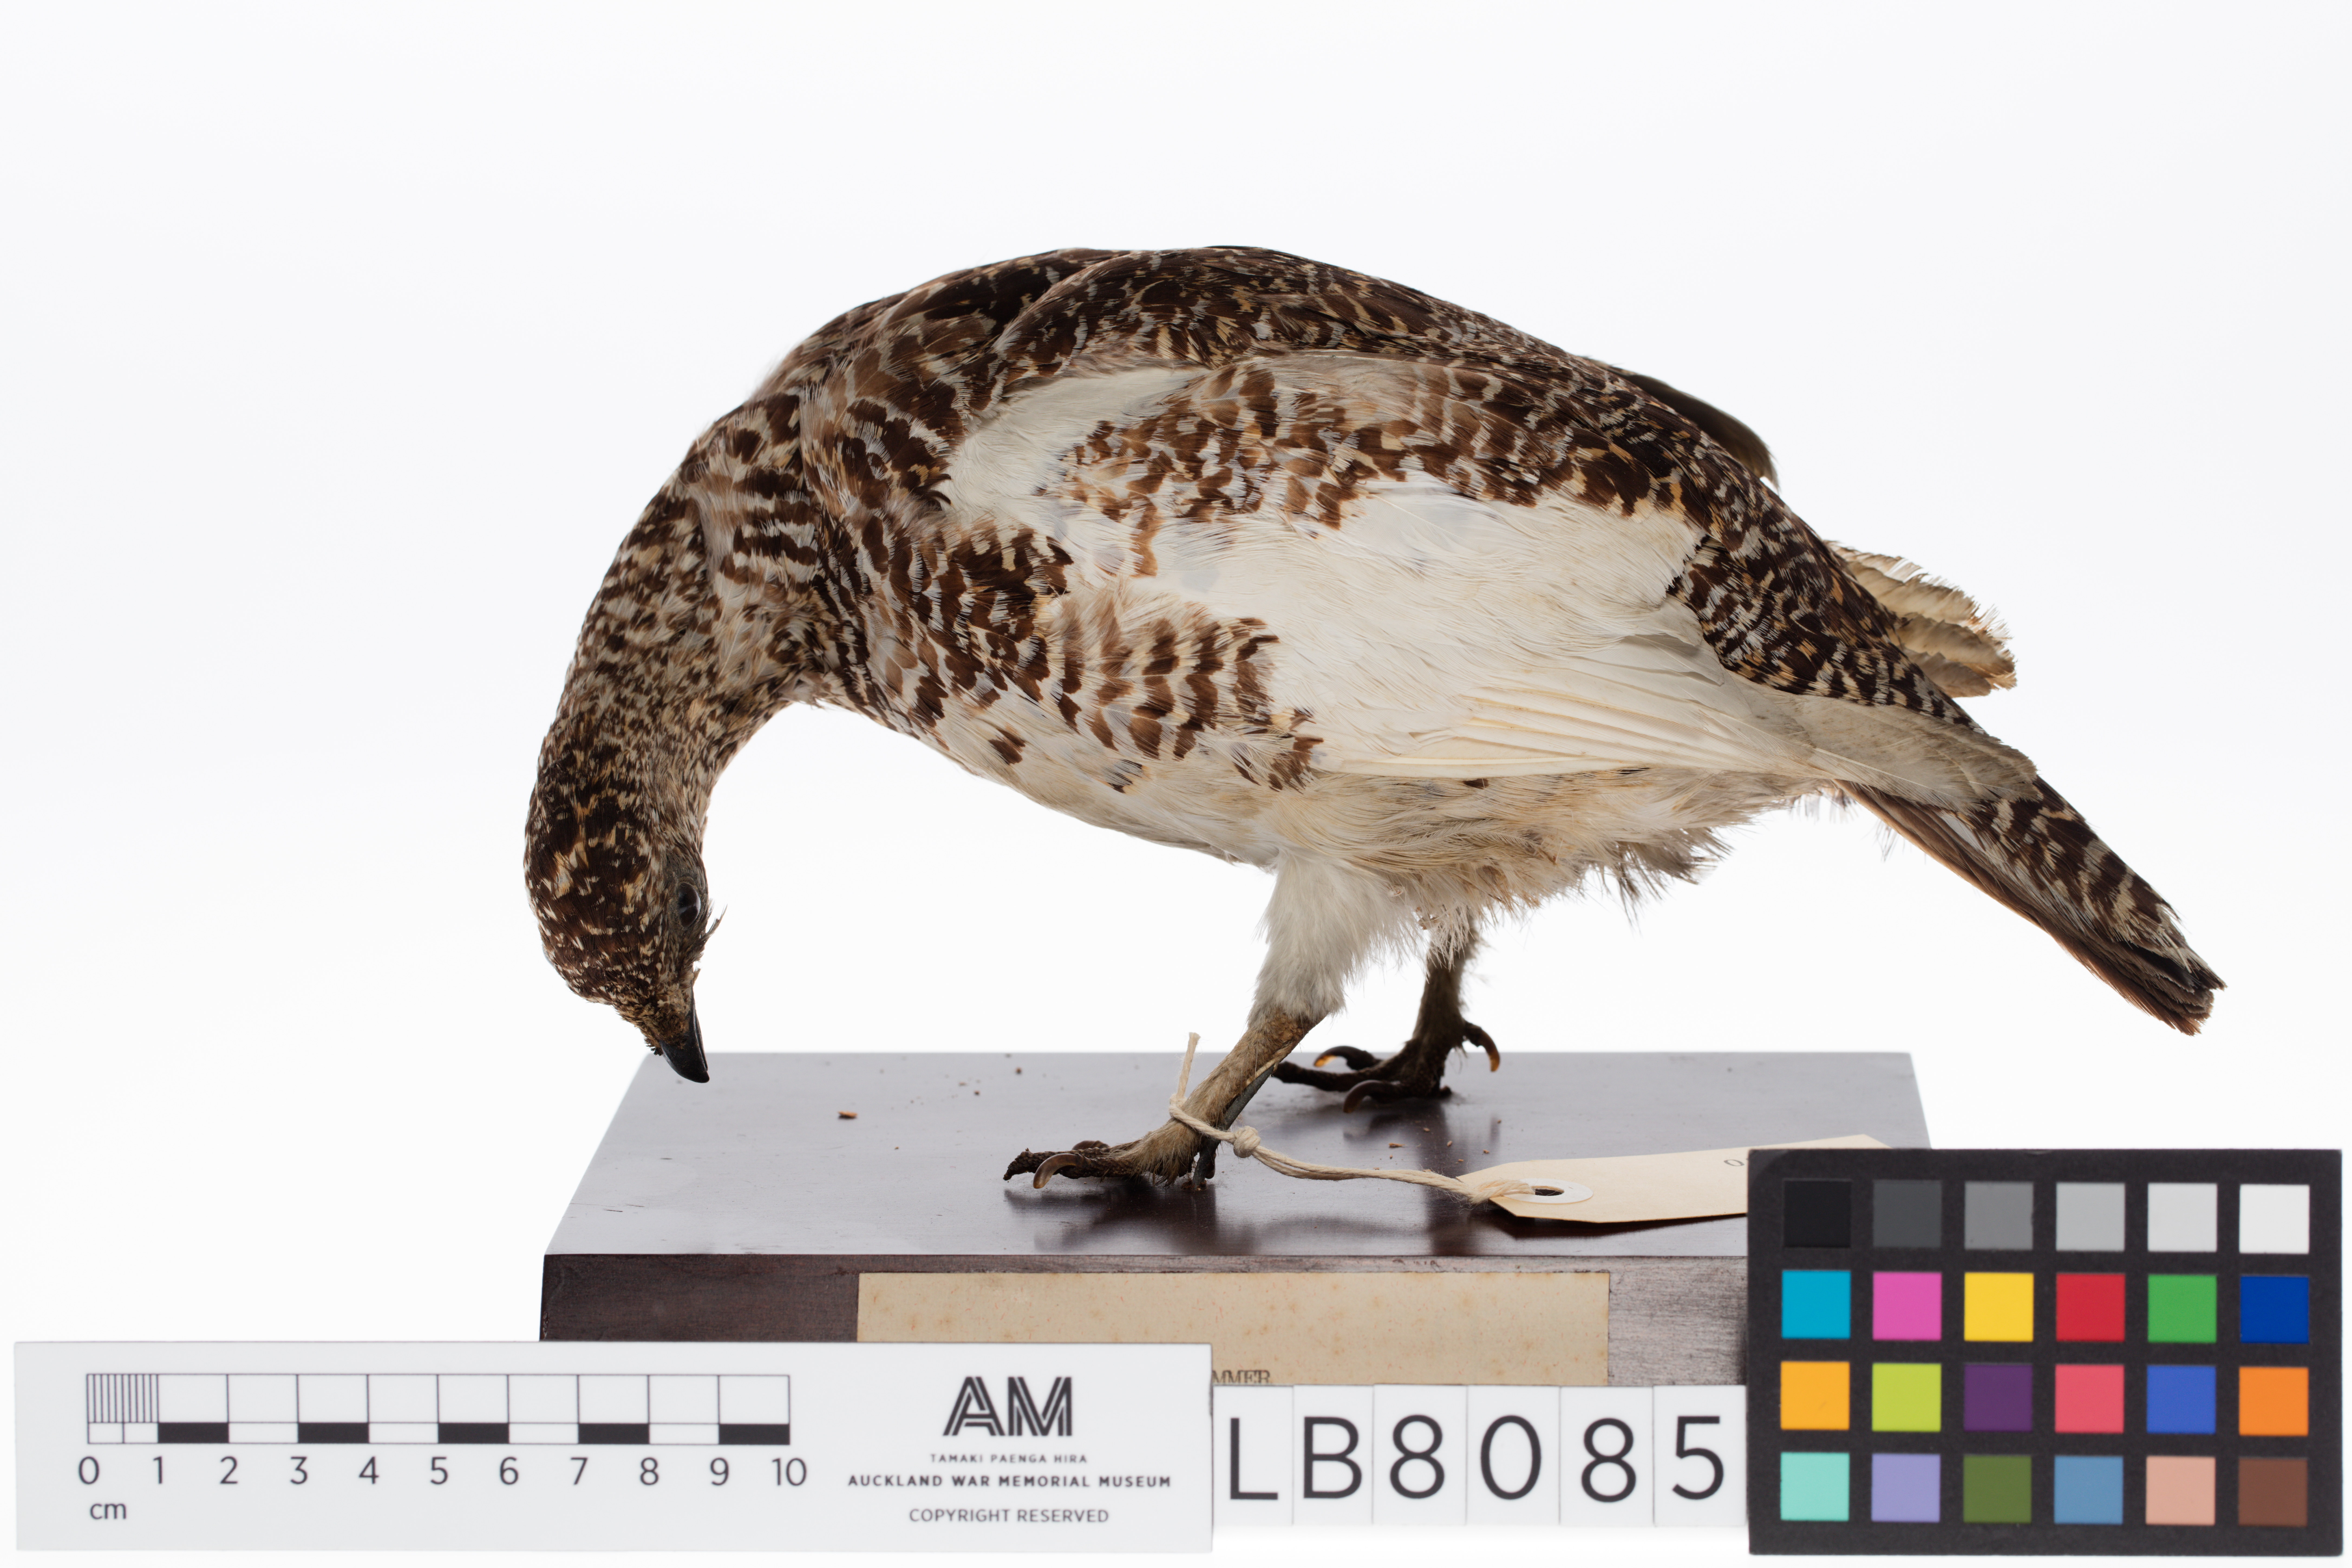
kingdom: Animalia
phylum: Chordata
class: Aves
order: Galliformes
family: Phasianidae
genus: Lagopus
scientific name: Lagopus muta
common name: Rock ptarmigan
